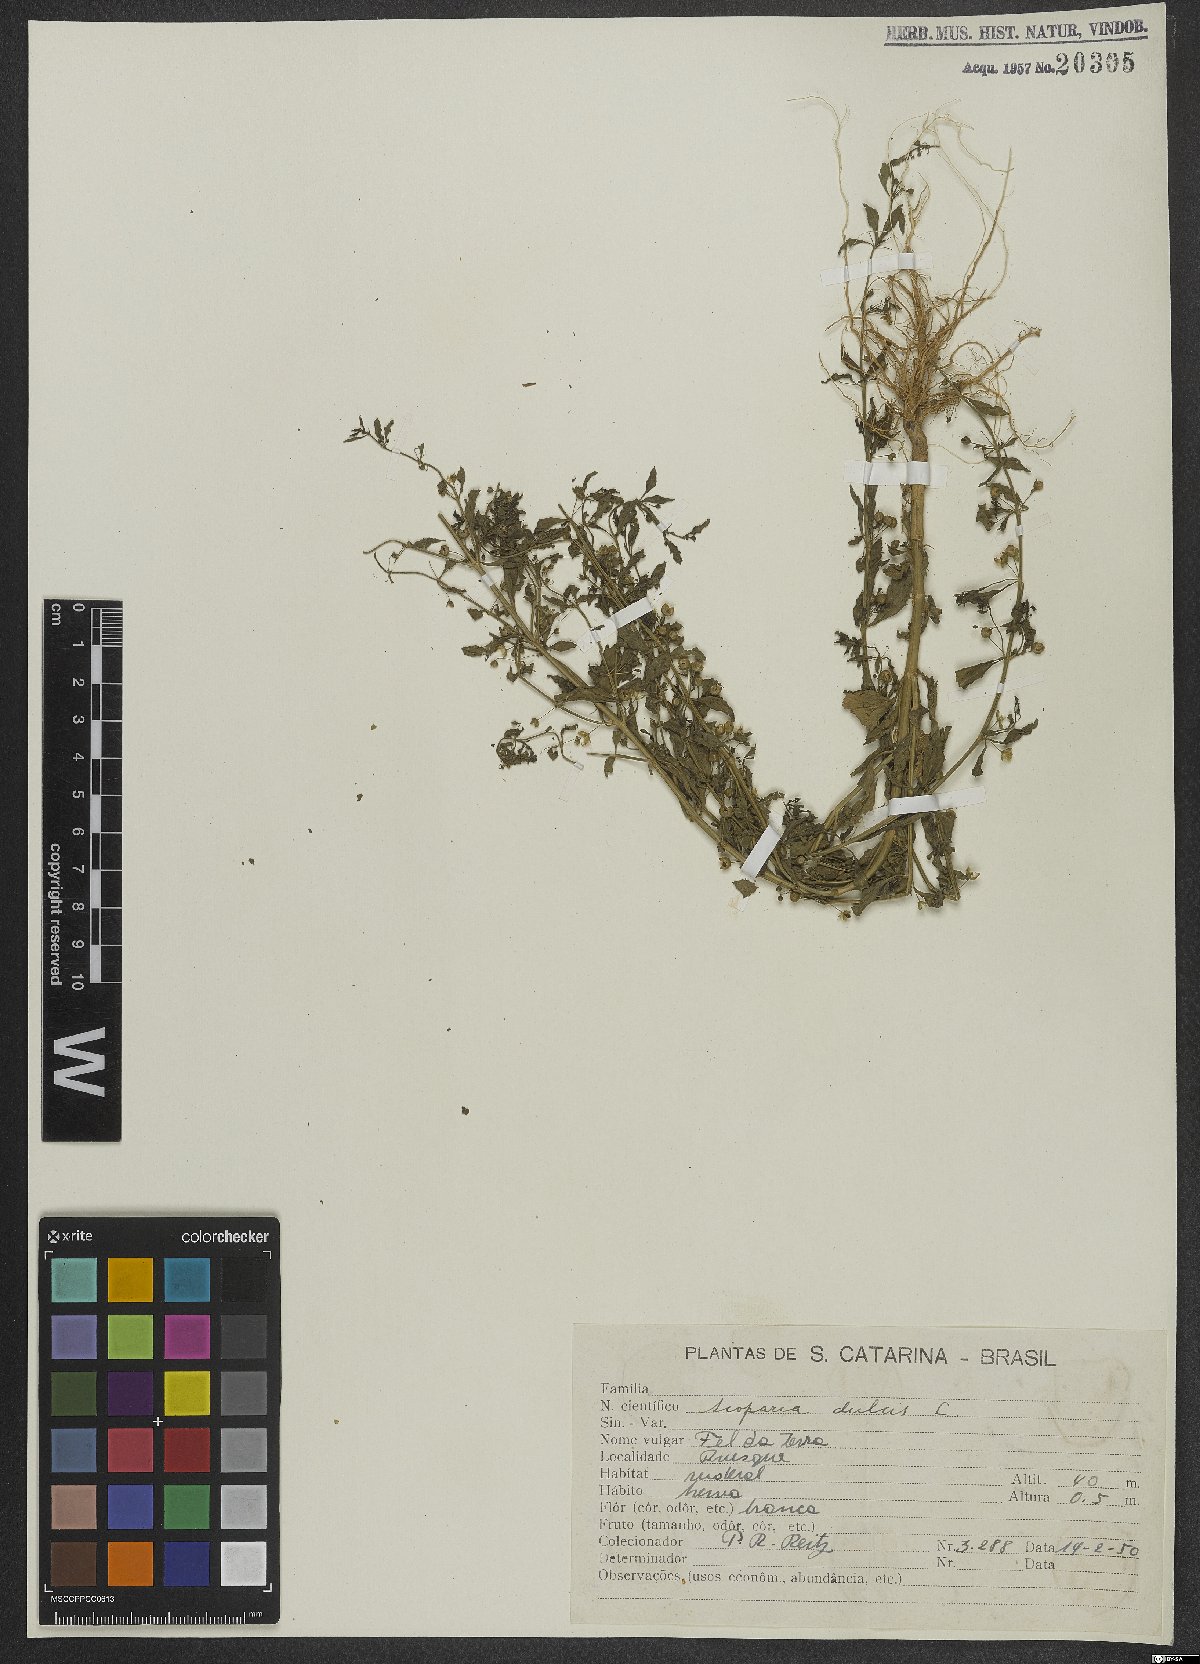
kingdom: Plantae
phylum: Tracheophyta
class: Magnoliopsida
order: Lamiales
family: Plantaginaceae
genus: Scoparia
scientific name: Scoparia dulcis
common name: Scoparia-weed
